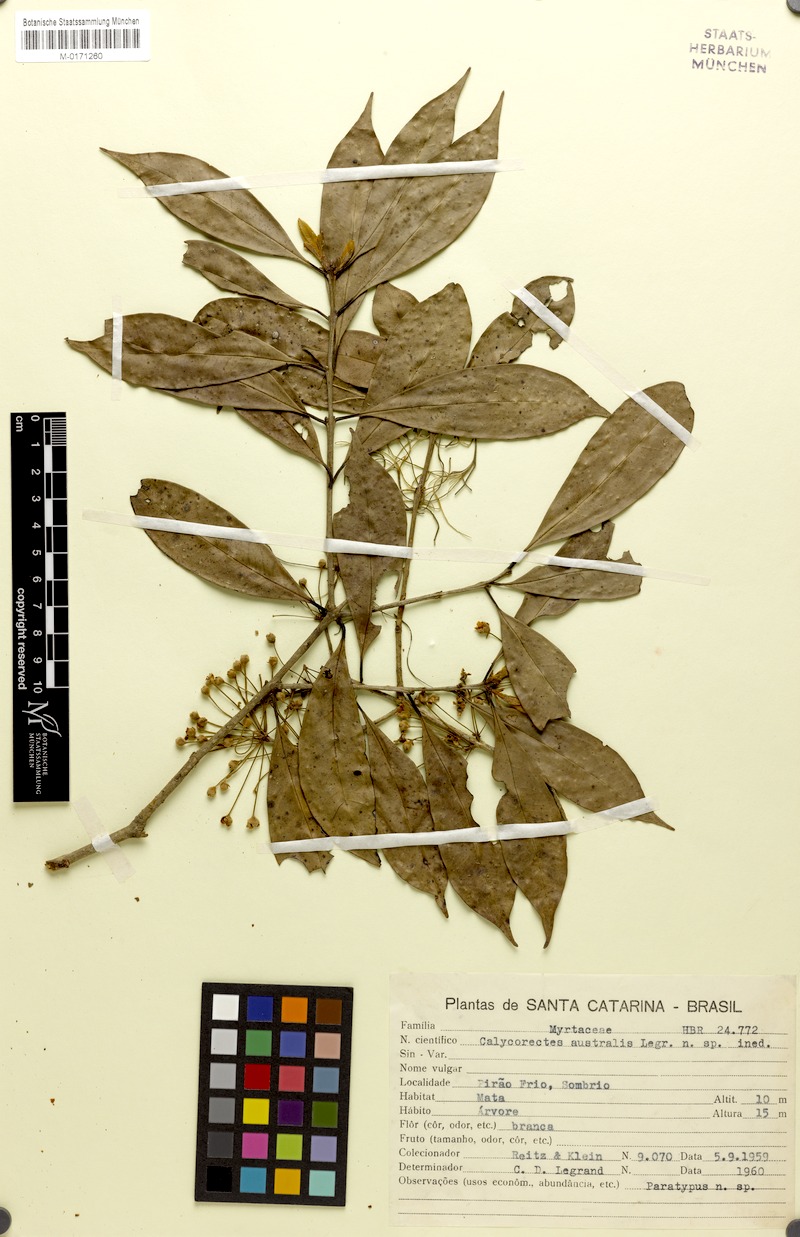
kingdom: Plantae
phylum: Tracheophyta
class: Magnoliopsida
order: Myrtales
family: Myrtaceae
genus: Eugenia
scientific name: Eugenia neoaustralis
